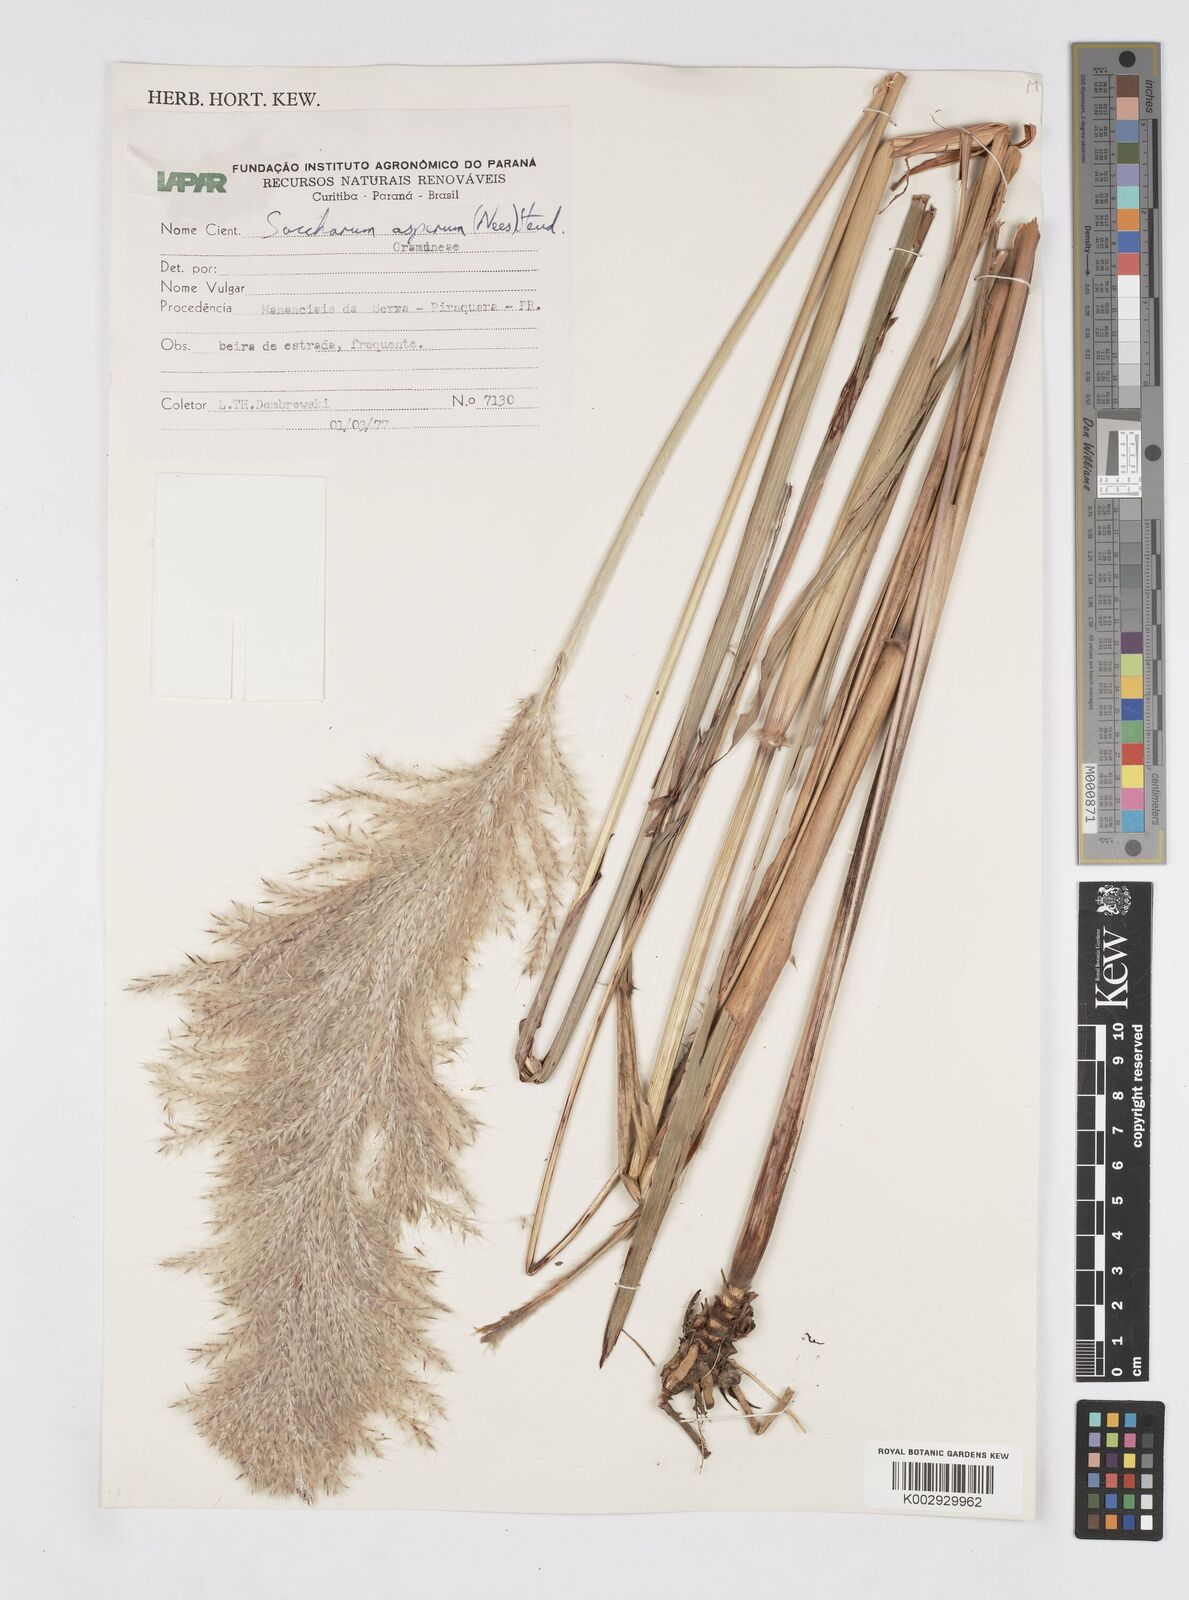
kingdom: Plantae
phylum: Tracheophyta
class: Liliopsida
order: Poales
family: Poaceae
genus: Erianthus
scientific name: Erianthus asper
